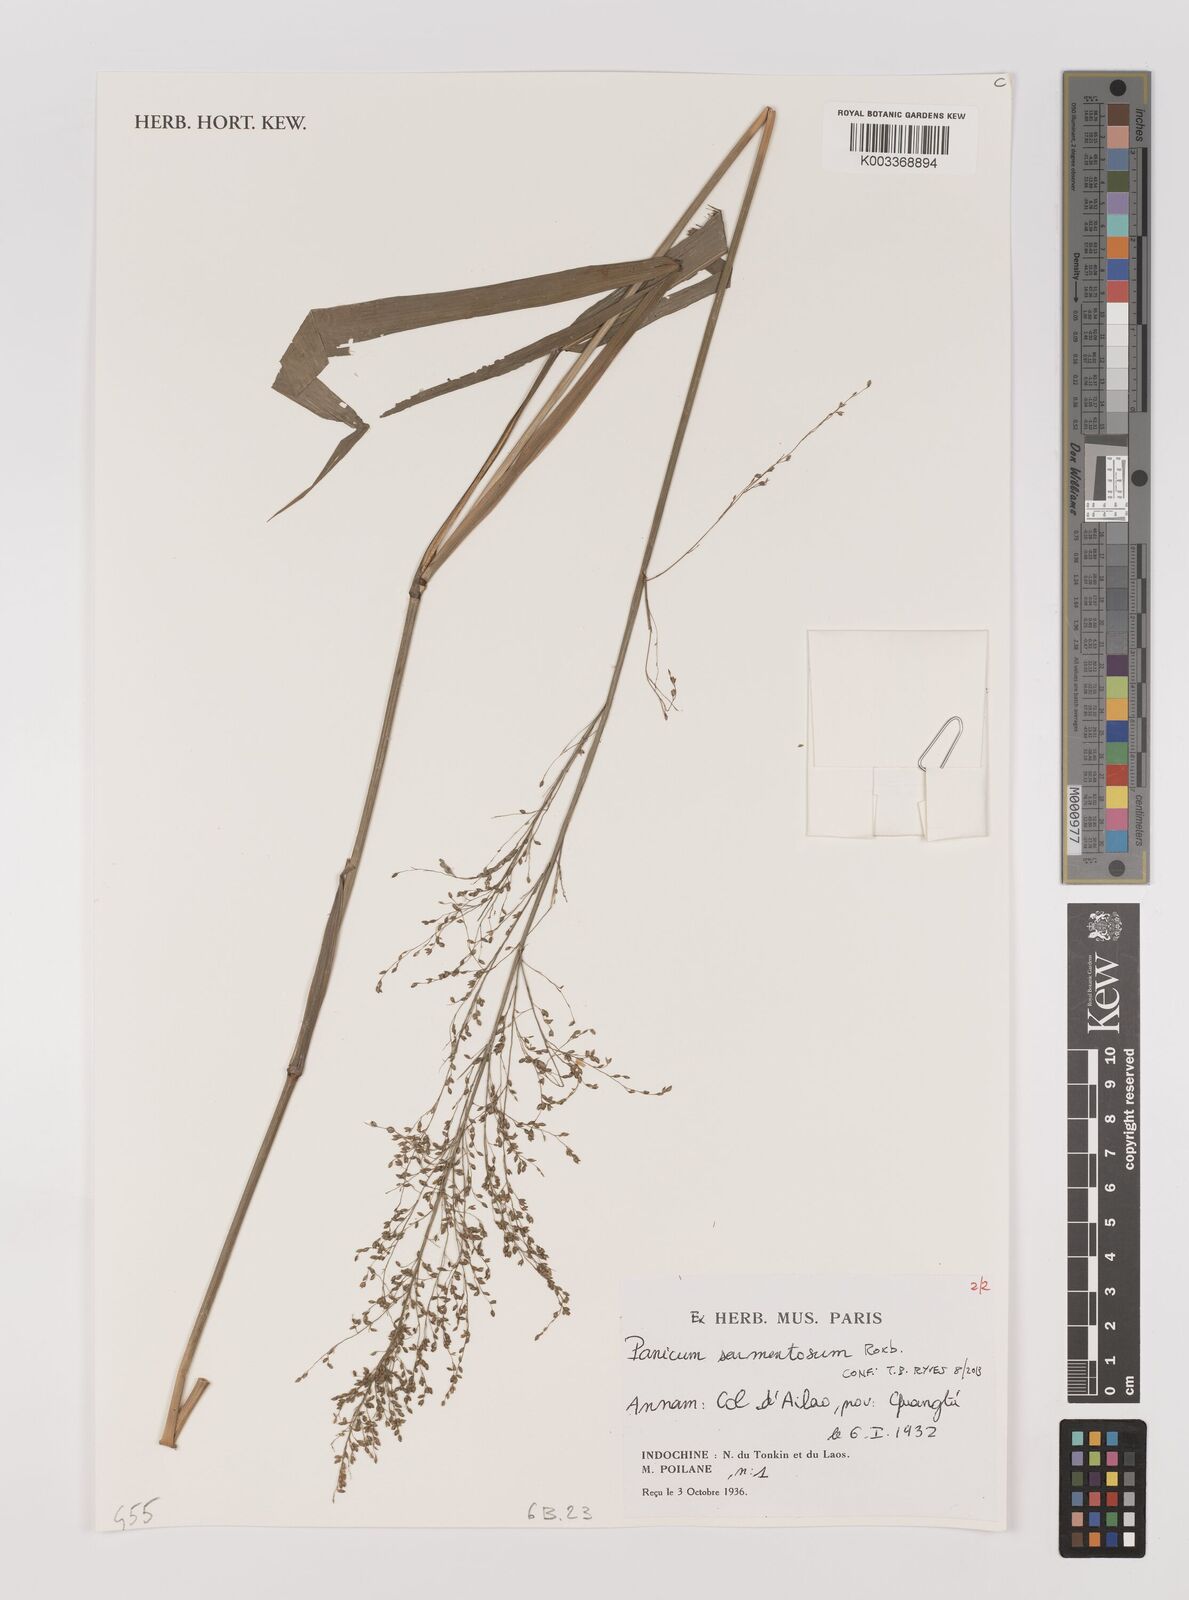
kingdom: Plantae
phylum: Tracheophyta
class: Liliopsida
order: Poales
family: Poaceae
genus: Panicum
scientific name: Panicum sarmentosum
